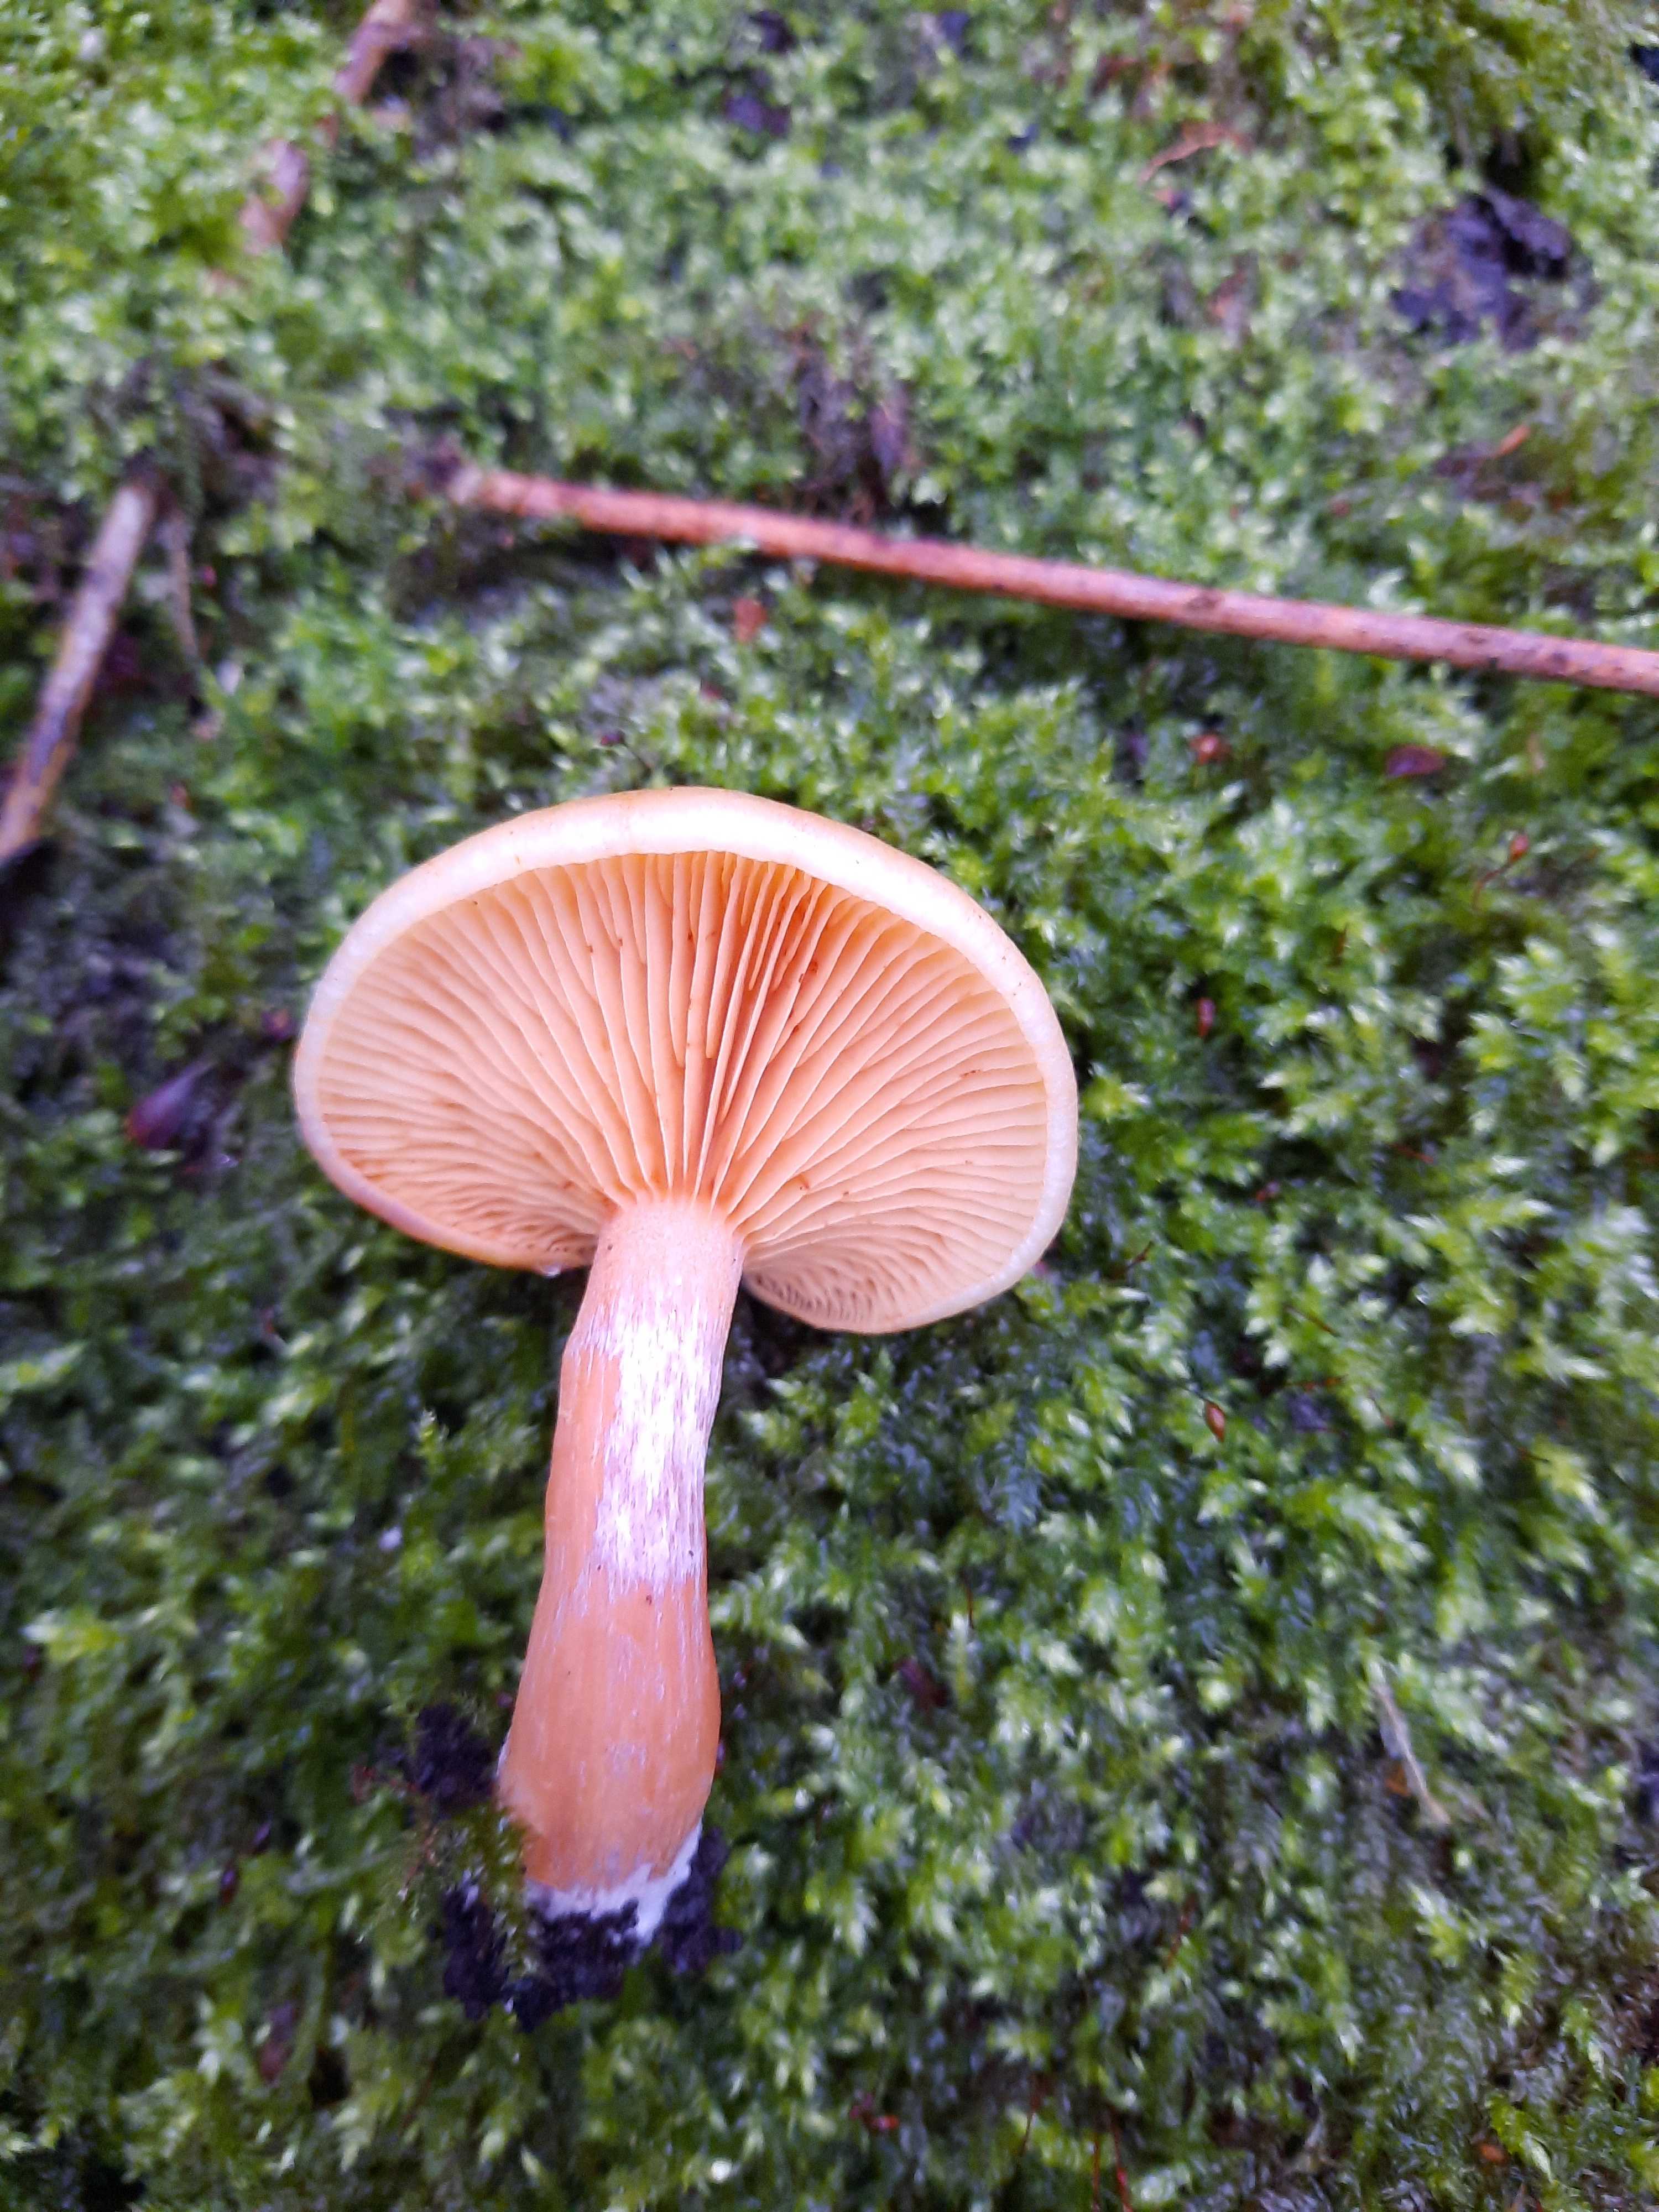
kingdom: Fungi
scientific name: Fungi
